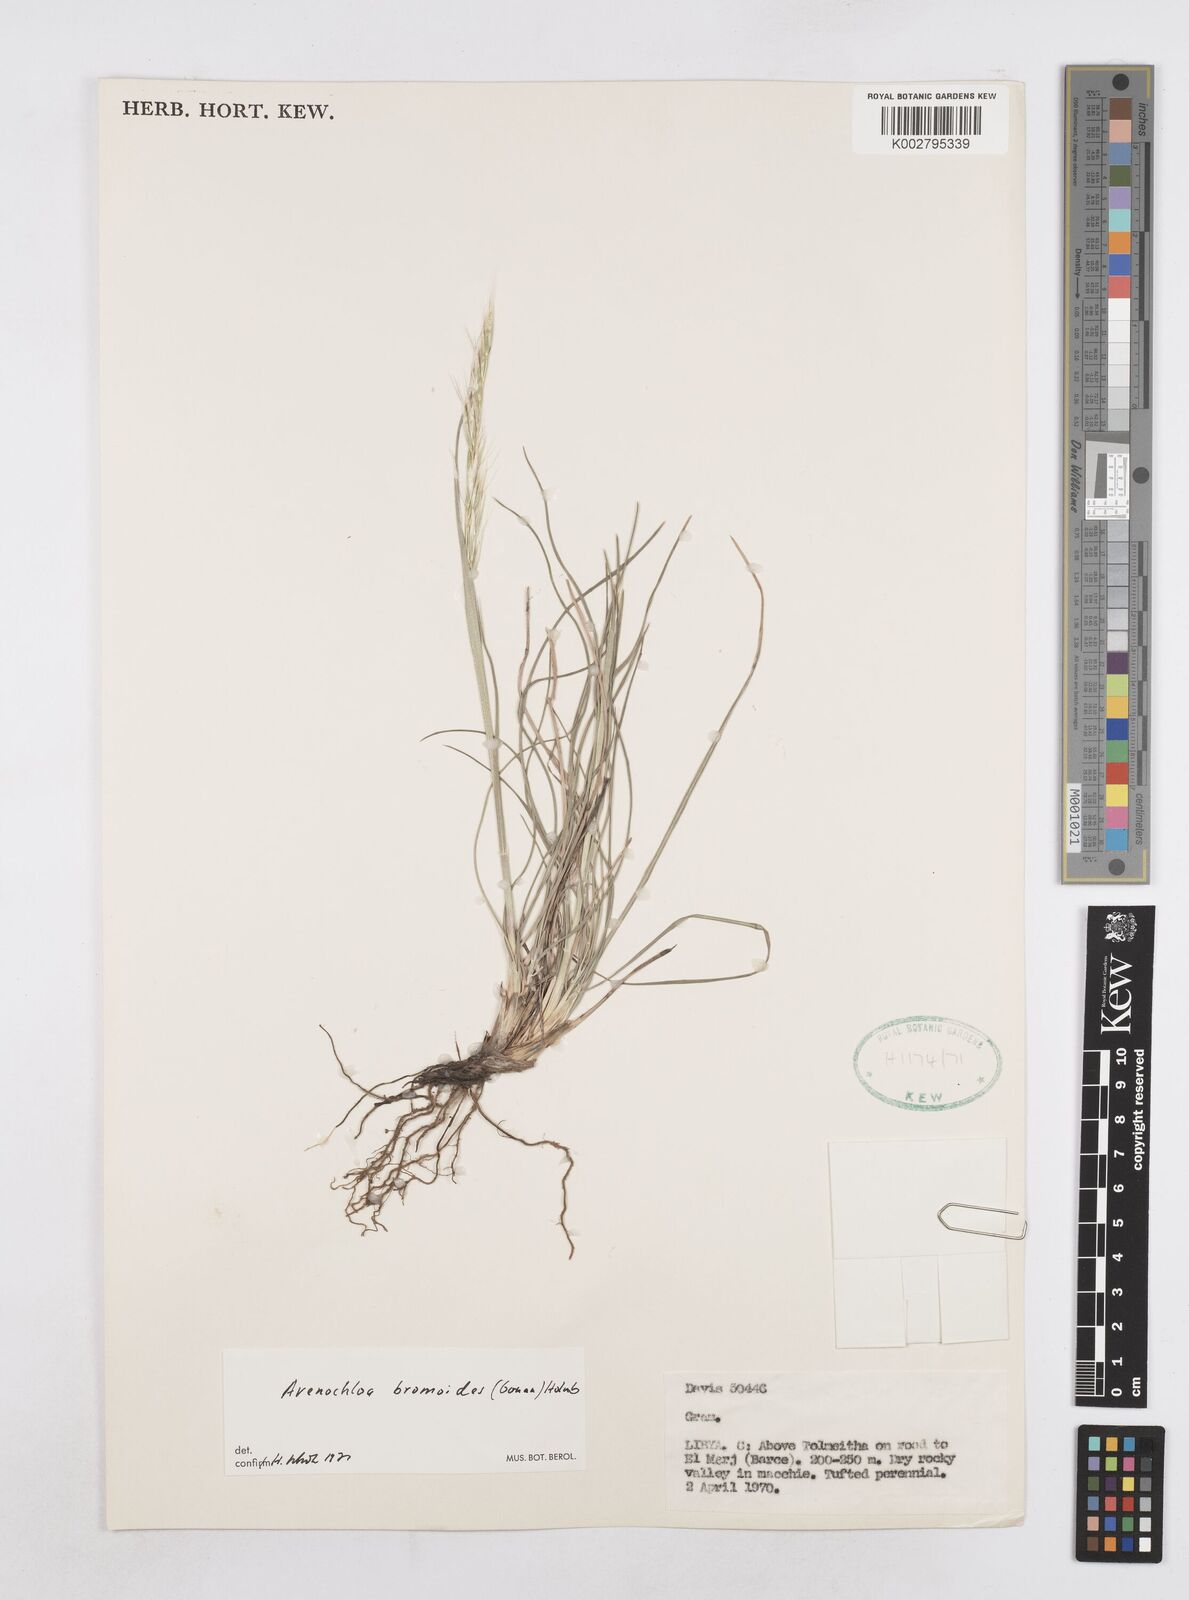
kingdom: Plantae
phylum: Tracheophyta
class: Liliopsida
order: Poales
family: Poaceae
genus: Helictochloa
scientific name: Helictochloa bromoides
